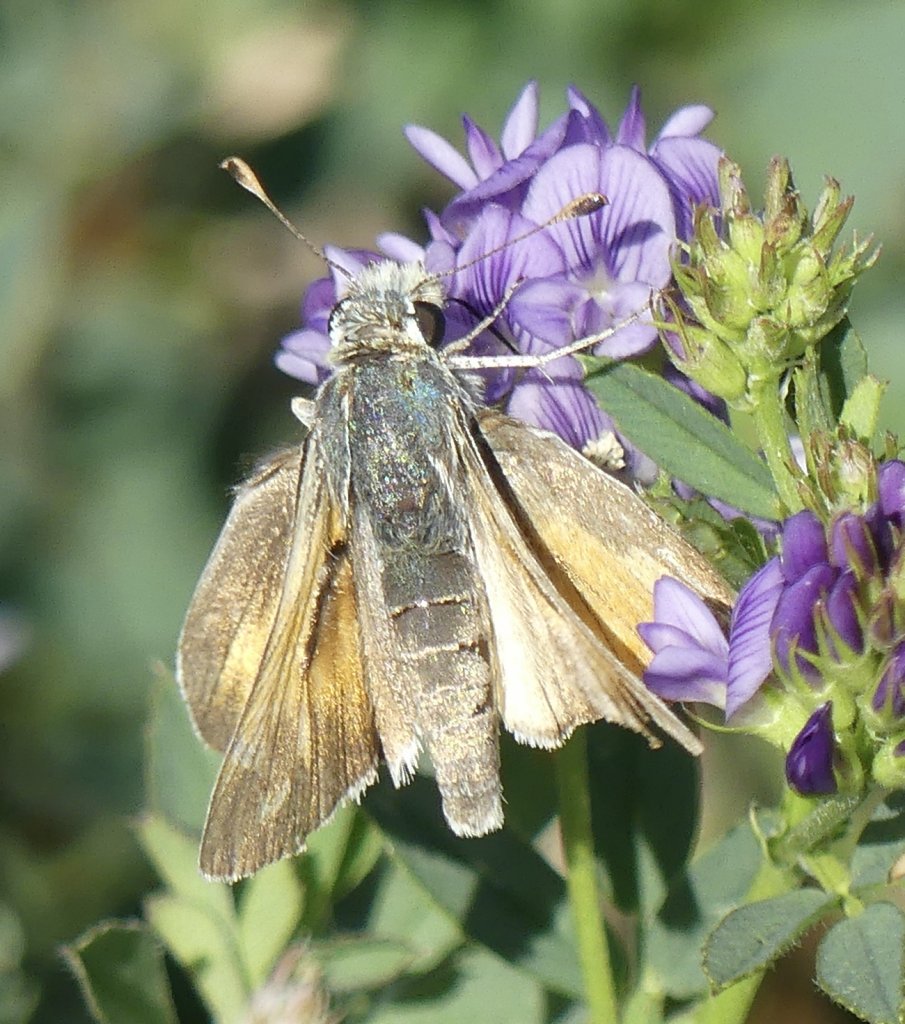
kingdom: Animalia
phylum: Arthropoda
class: Insecta
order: Lepidoptera
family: Hesperiidae
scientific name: Hesperiidae
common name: Skippers
